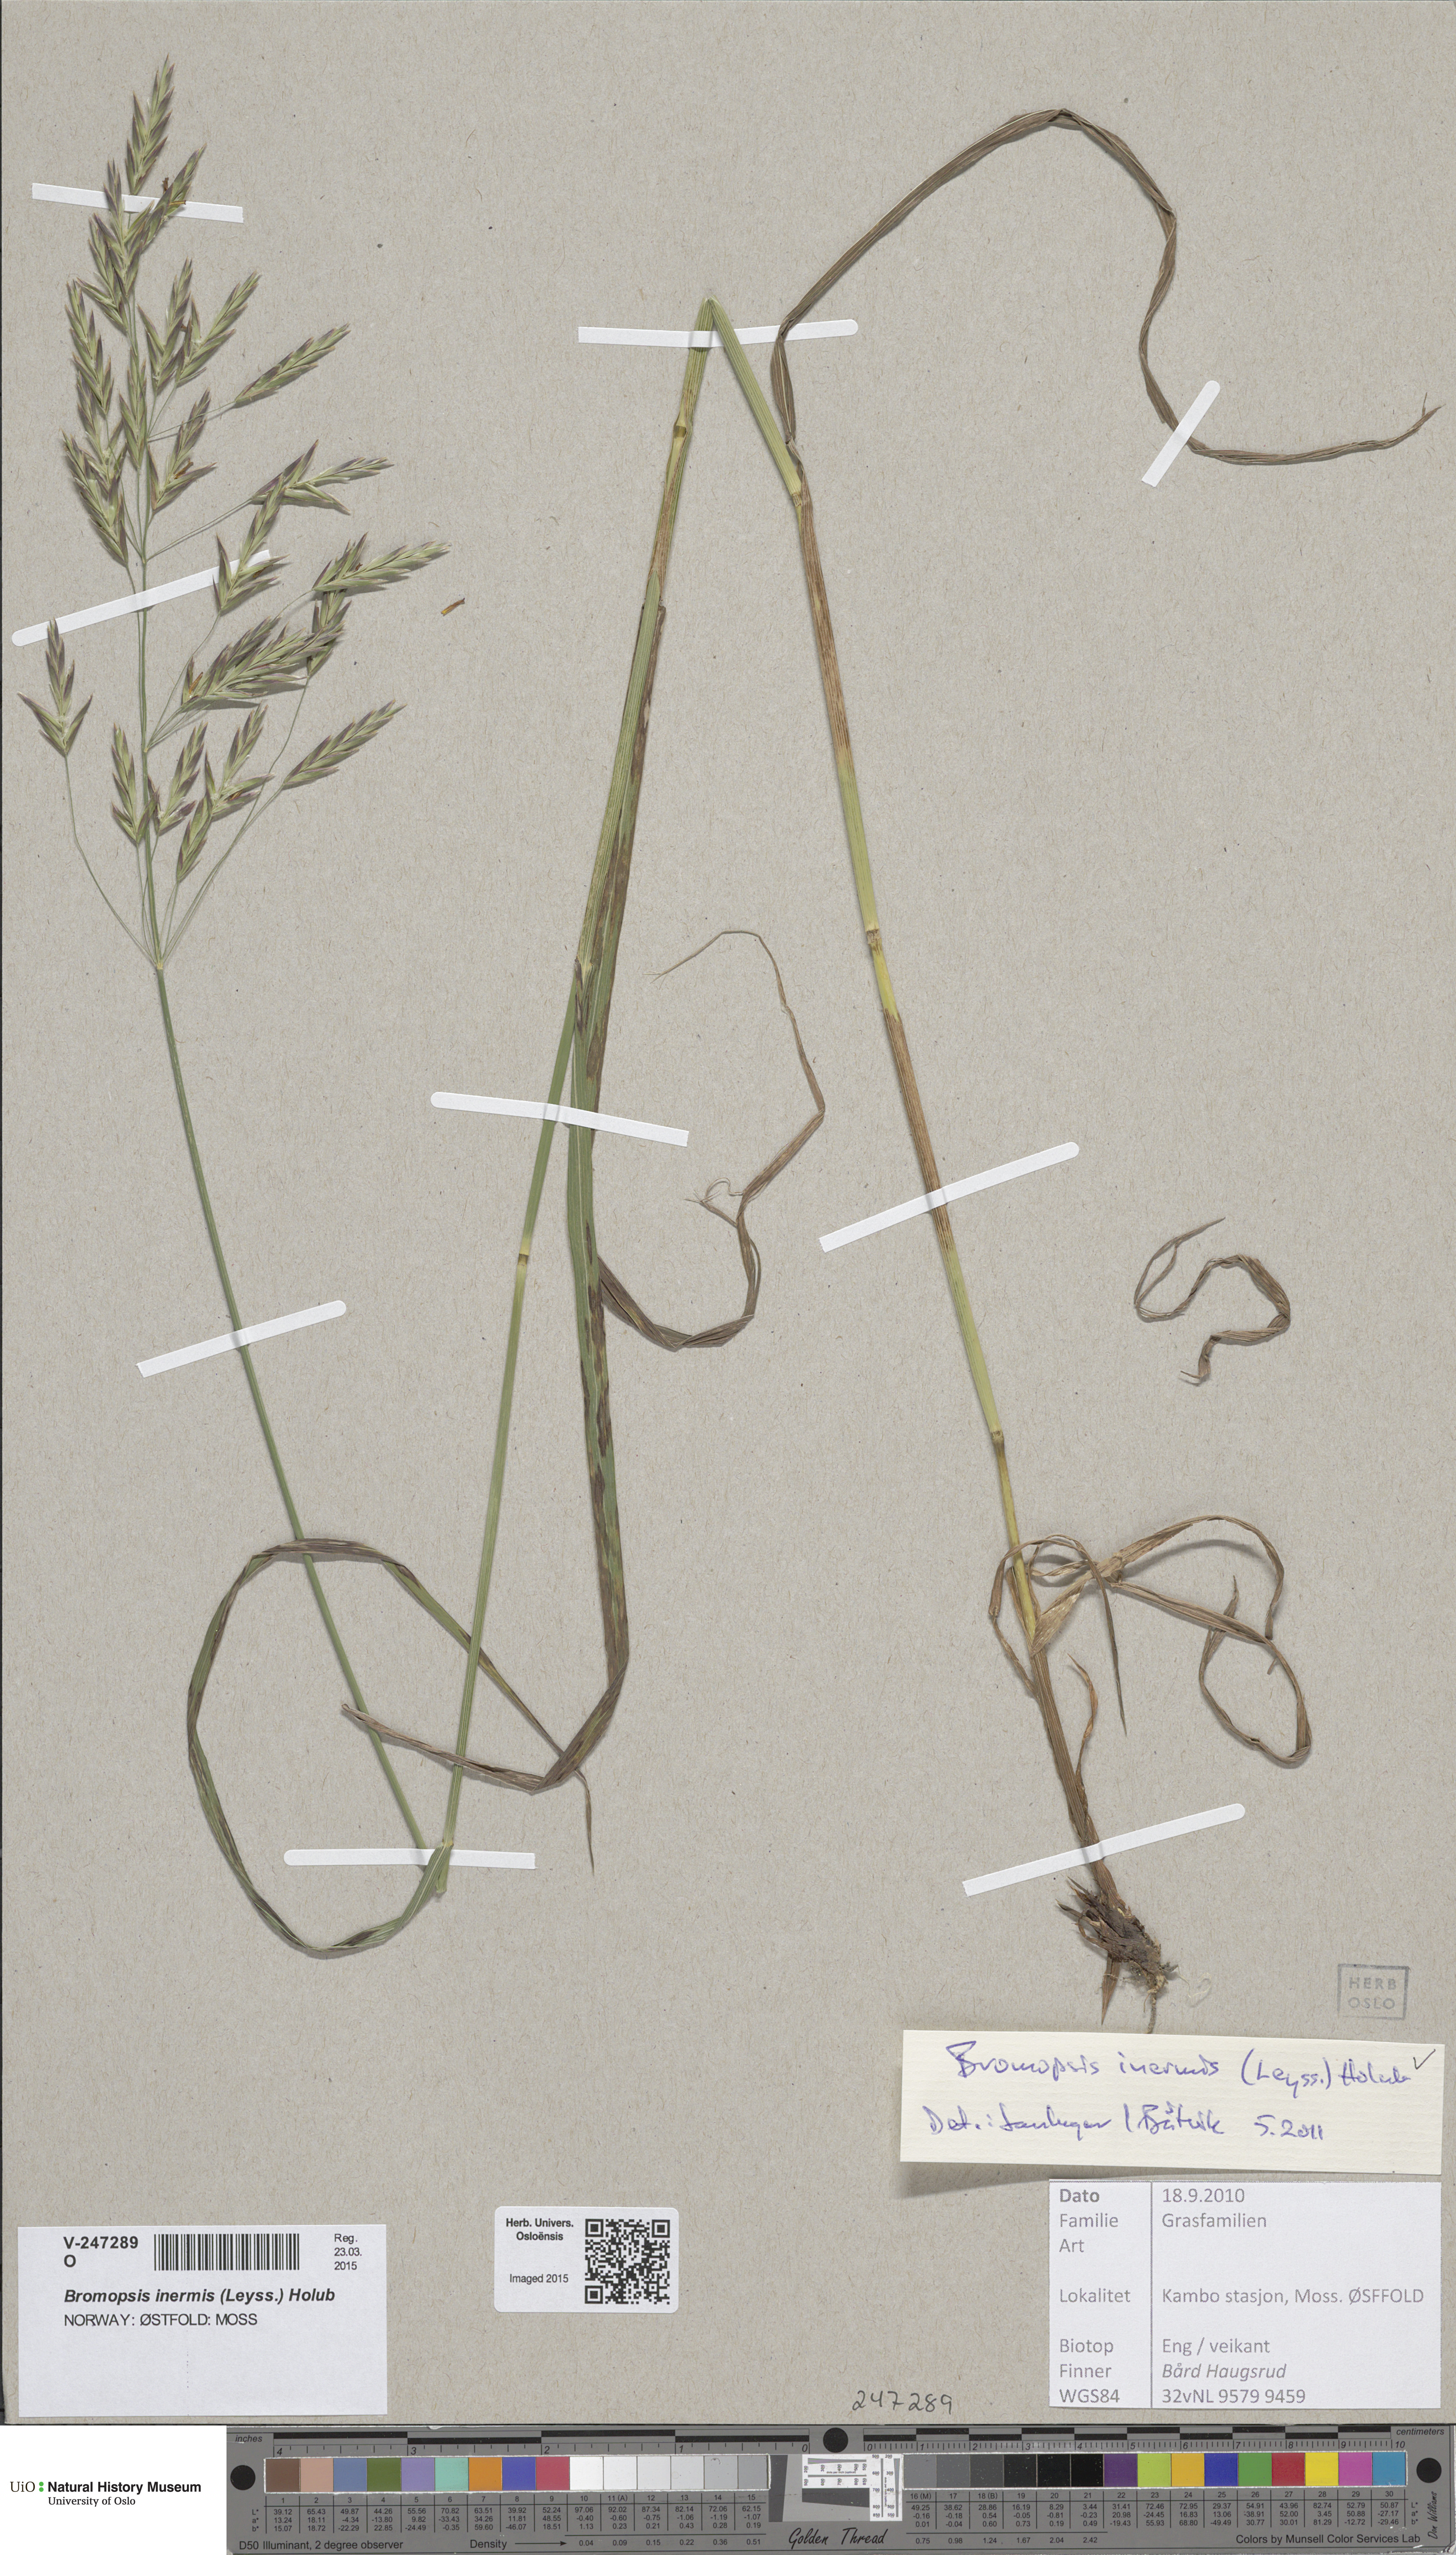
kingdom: Plantae
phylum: Tracheophyta
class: Liliopsida
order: Poales
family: Poaceae
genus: Bromus
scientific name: Bromus inermis
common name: Smooth brome
